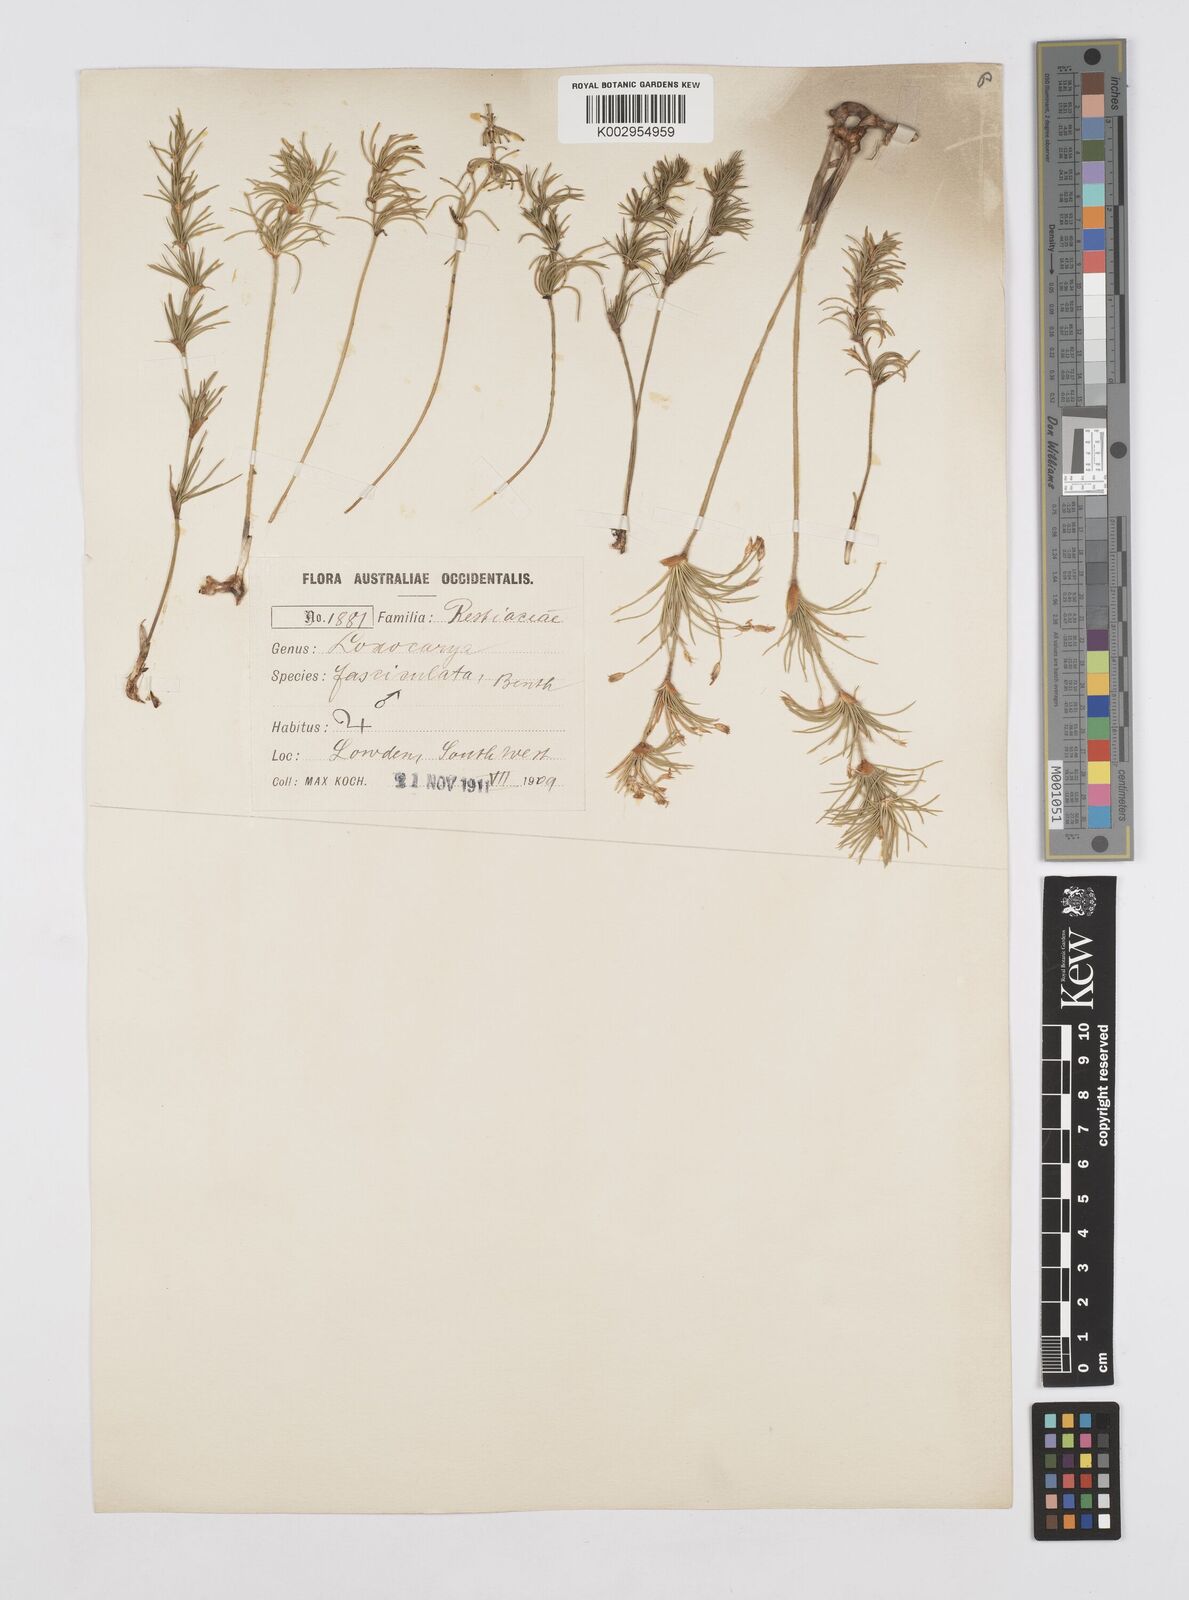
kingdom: Plantae
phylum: Tracheophyta
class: Liliopsida
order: Poales
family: Restionaceae
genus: Desmocladus
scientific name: Desmocladus fasciculatus
